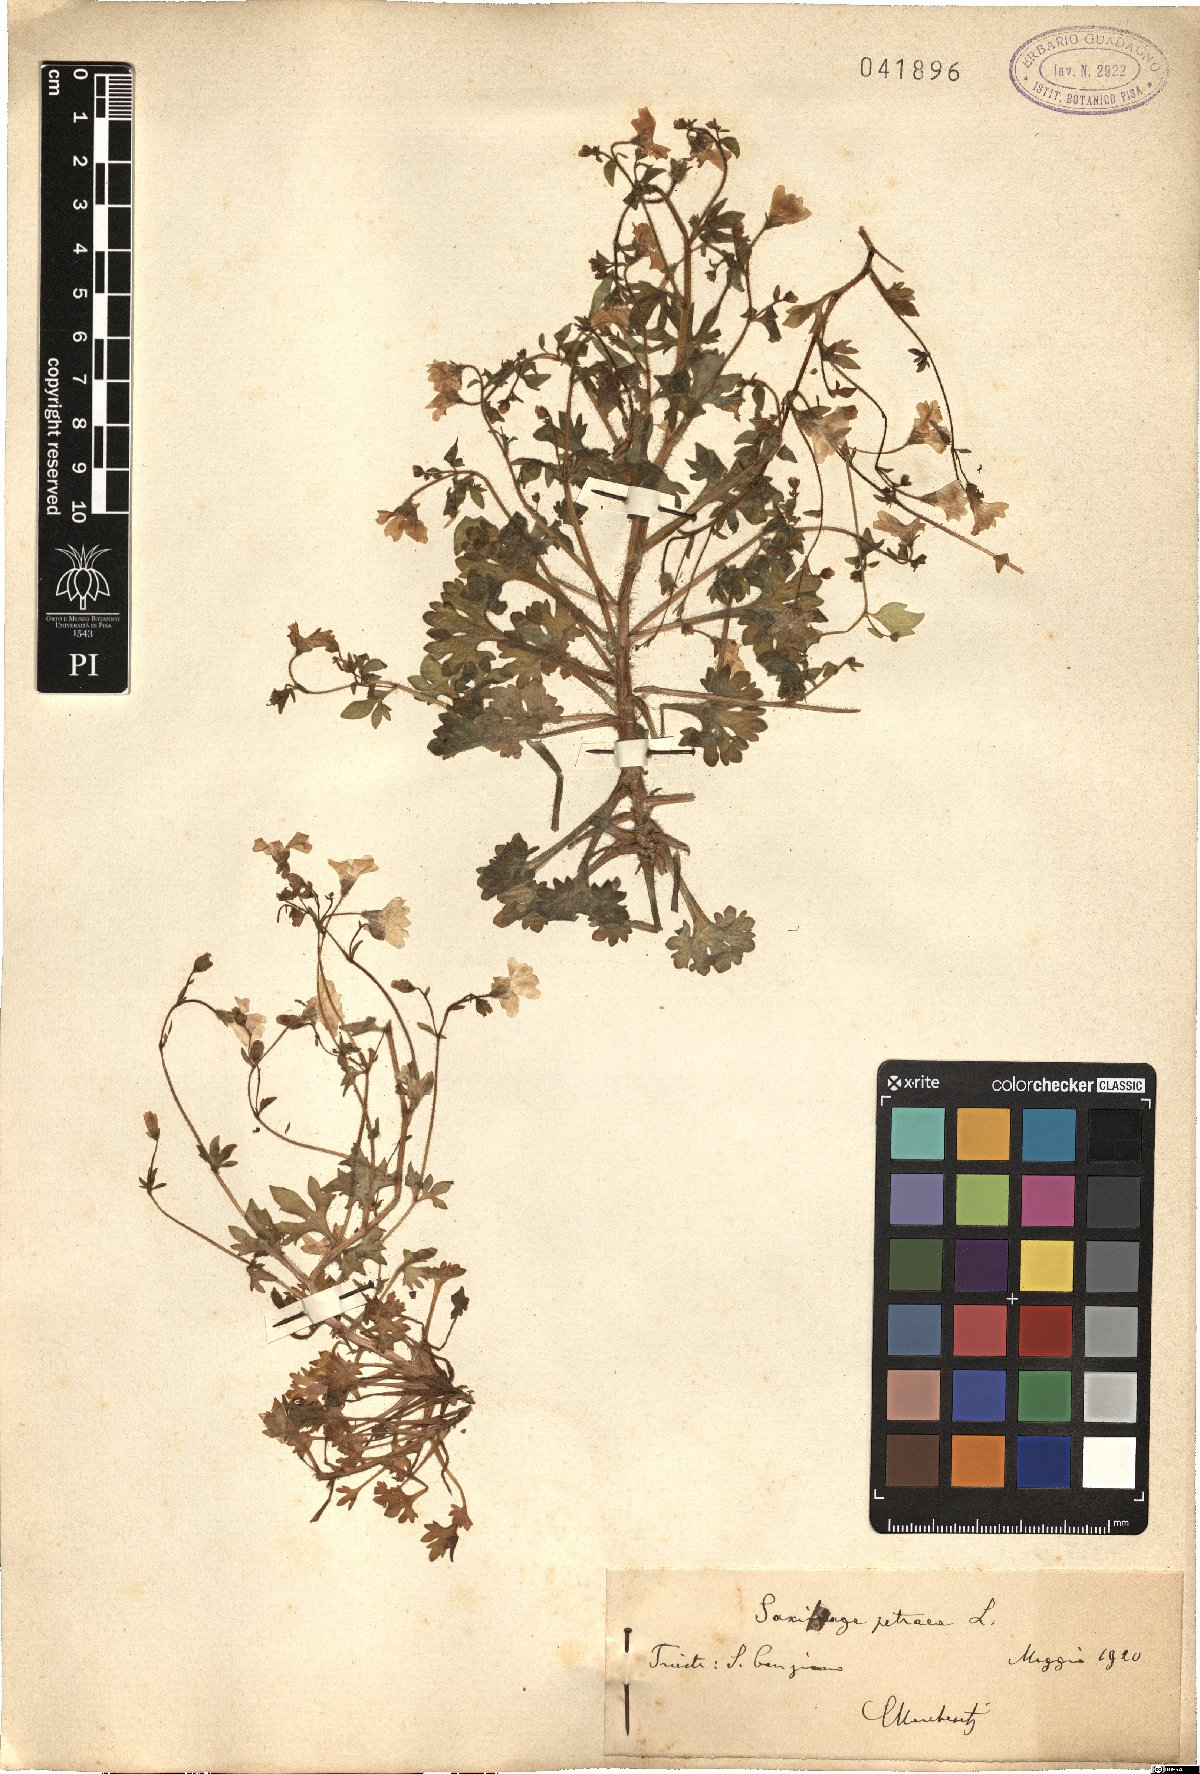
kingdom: Plantae
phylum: Tracheophyta
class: Magnoliopsida
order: Saxifragales
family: Saxifragaceae
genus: Saxifraga
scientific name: Saxifraga petraea
